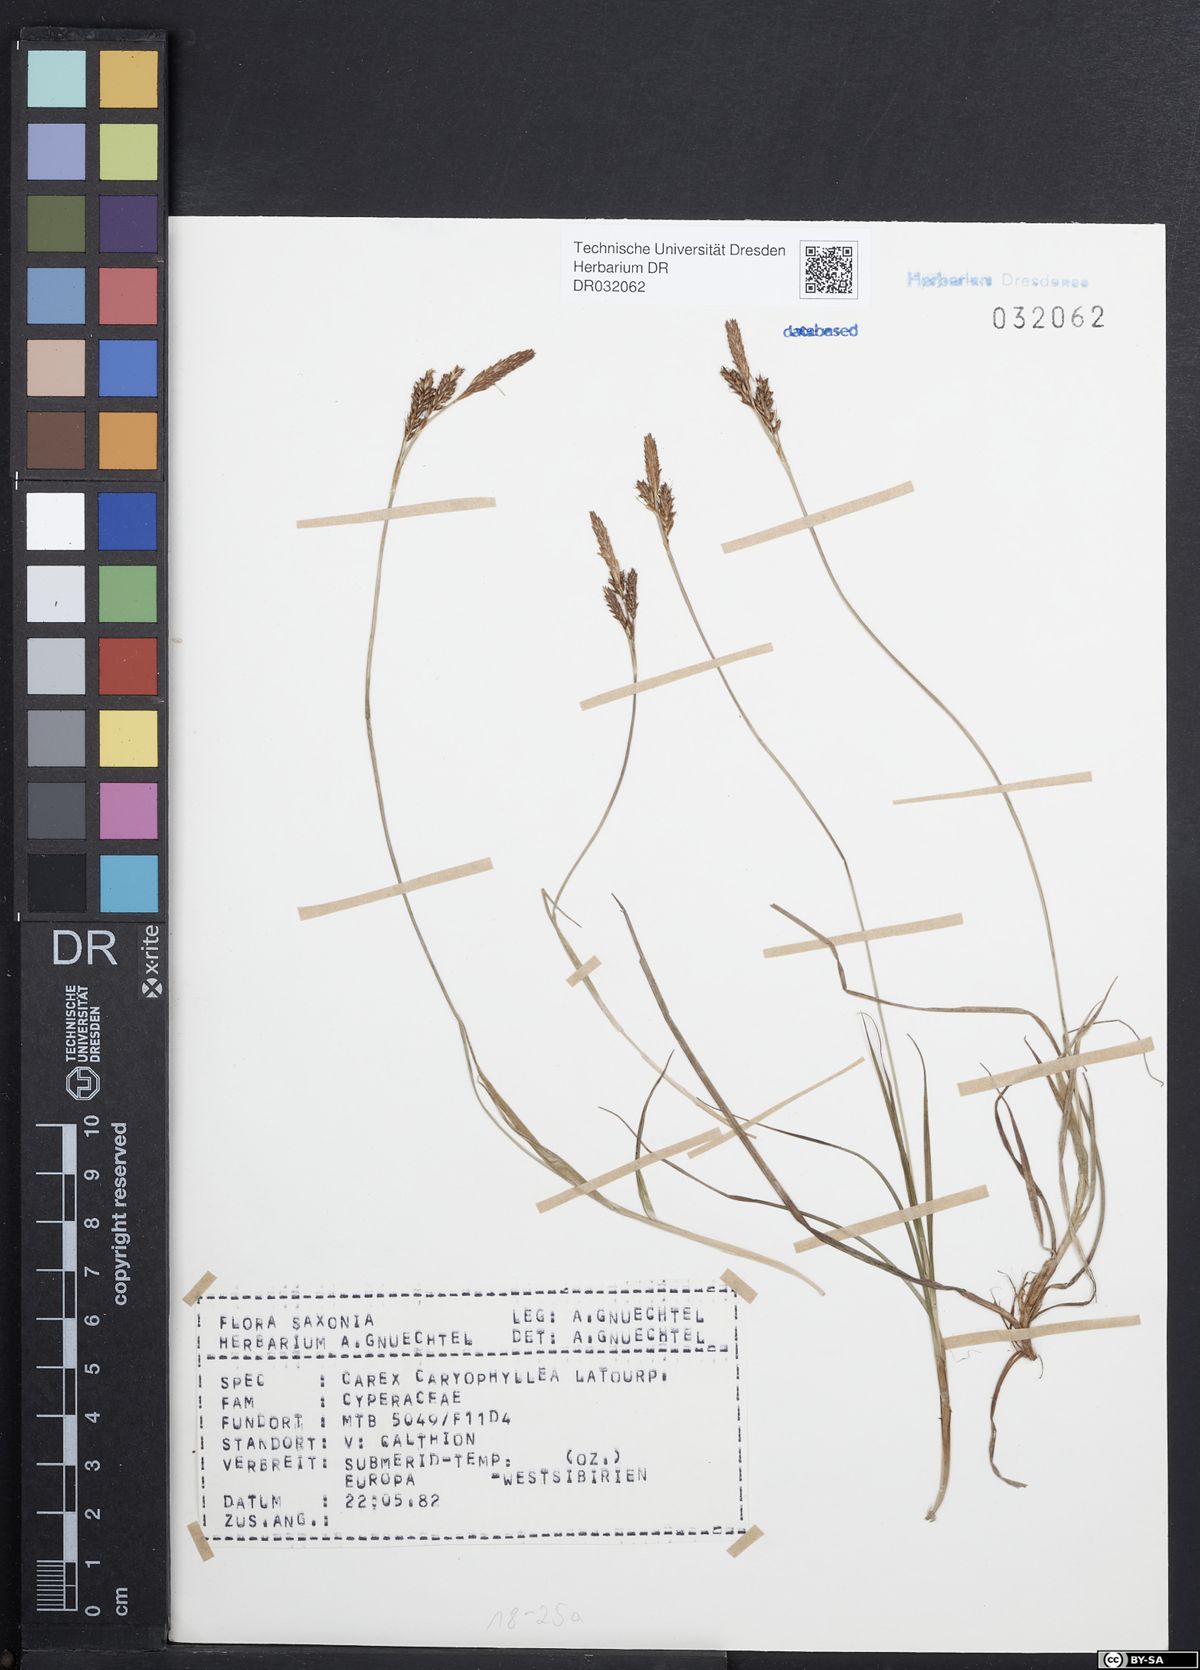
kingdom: Plantae
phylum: Tracheophyta
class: Liliopsida
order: Poales
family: Cyperaceae
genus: Carex
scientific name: Carex caryophyllea
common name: Spring sedge
